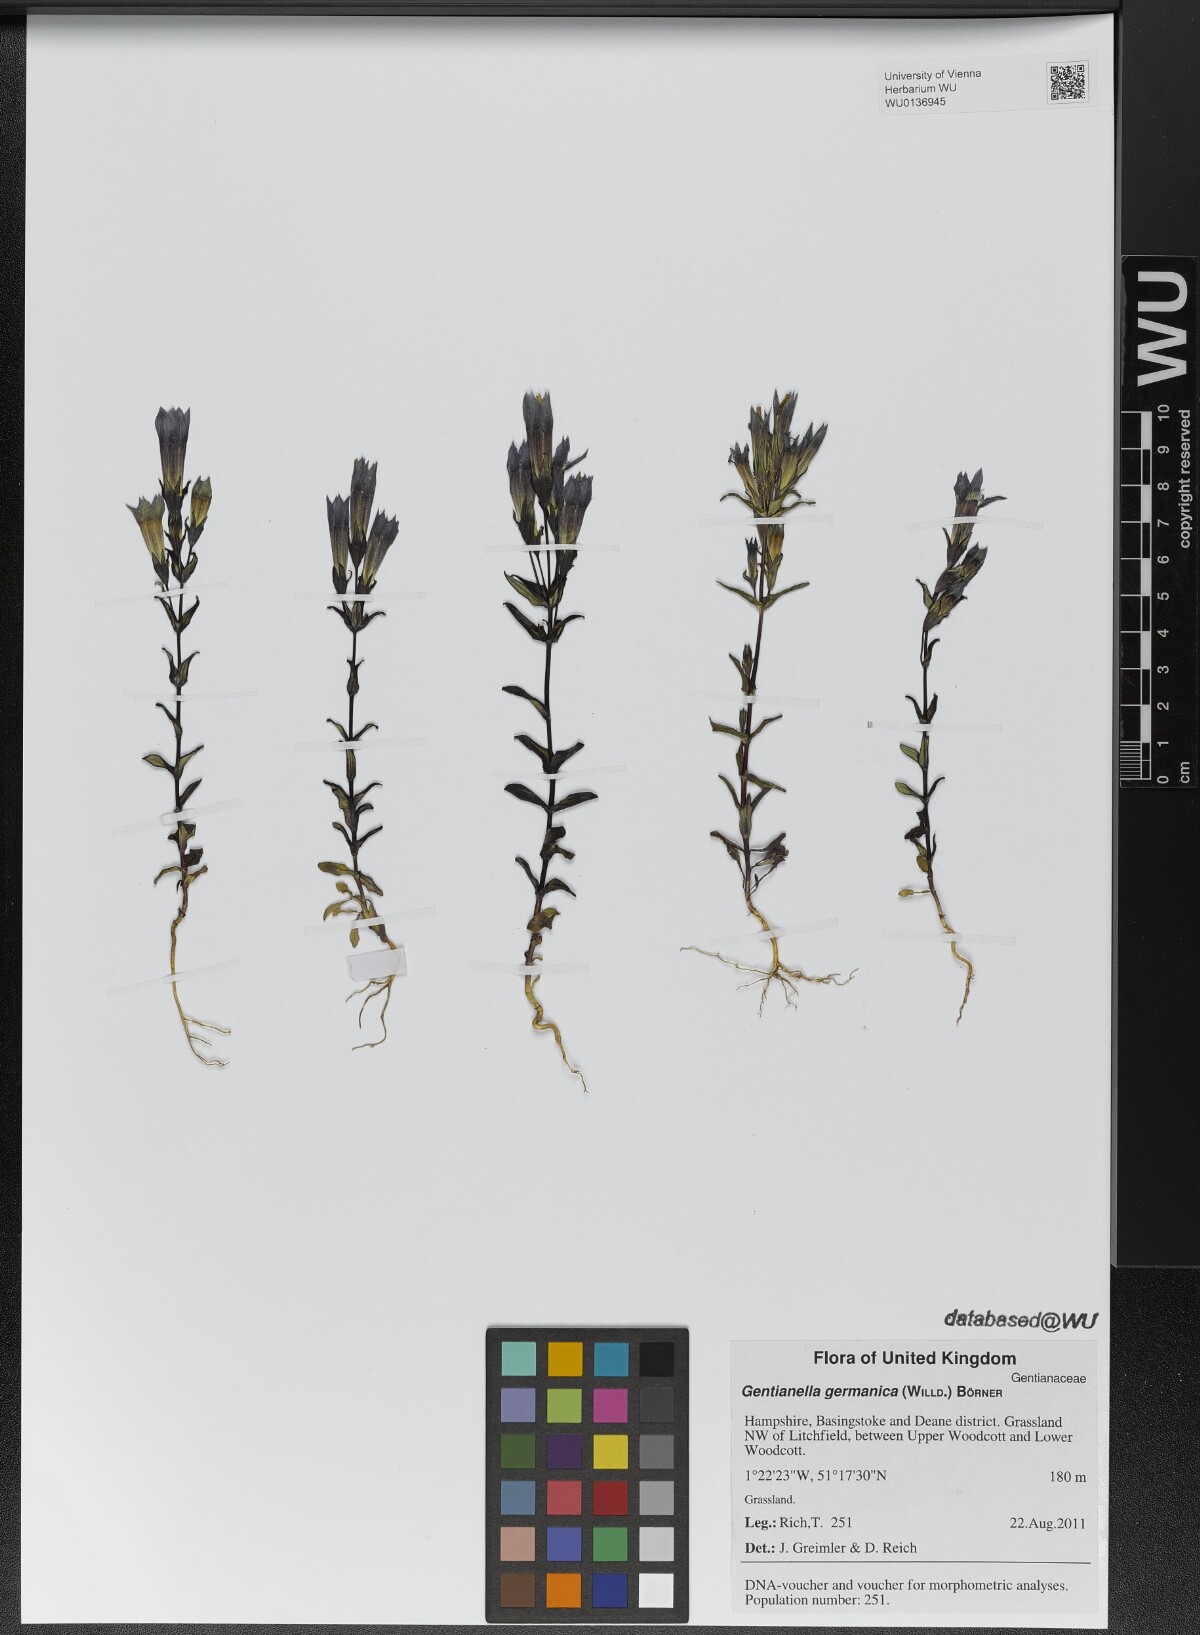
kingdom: Plantae
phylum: Tracheophyta
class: Magnoliopsida
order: Gentianales
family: Gentianaceae
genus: Gentianella
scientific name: Gentianella germanica
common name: Chiltern-gentian
